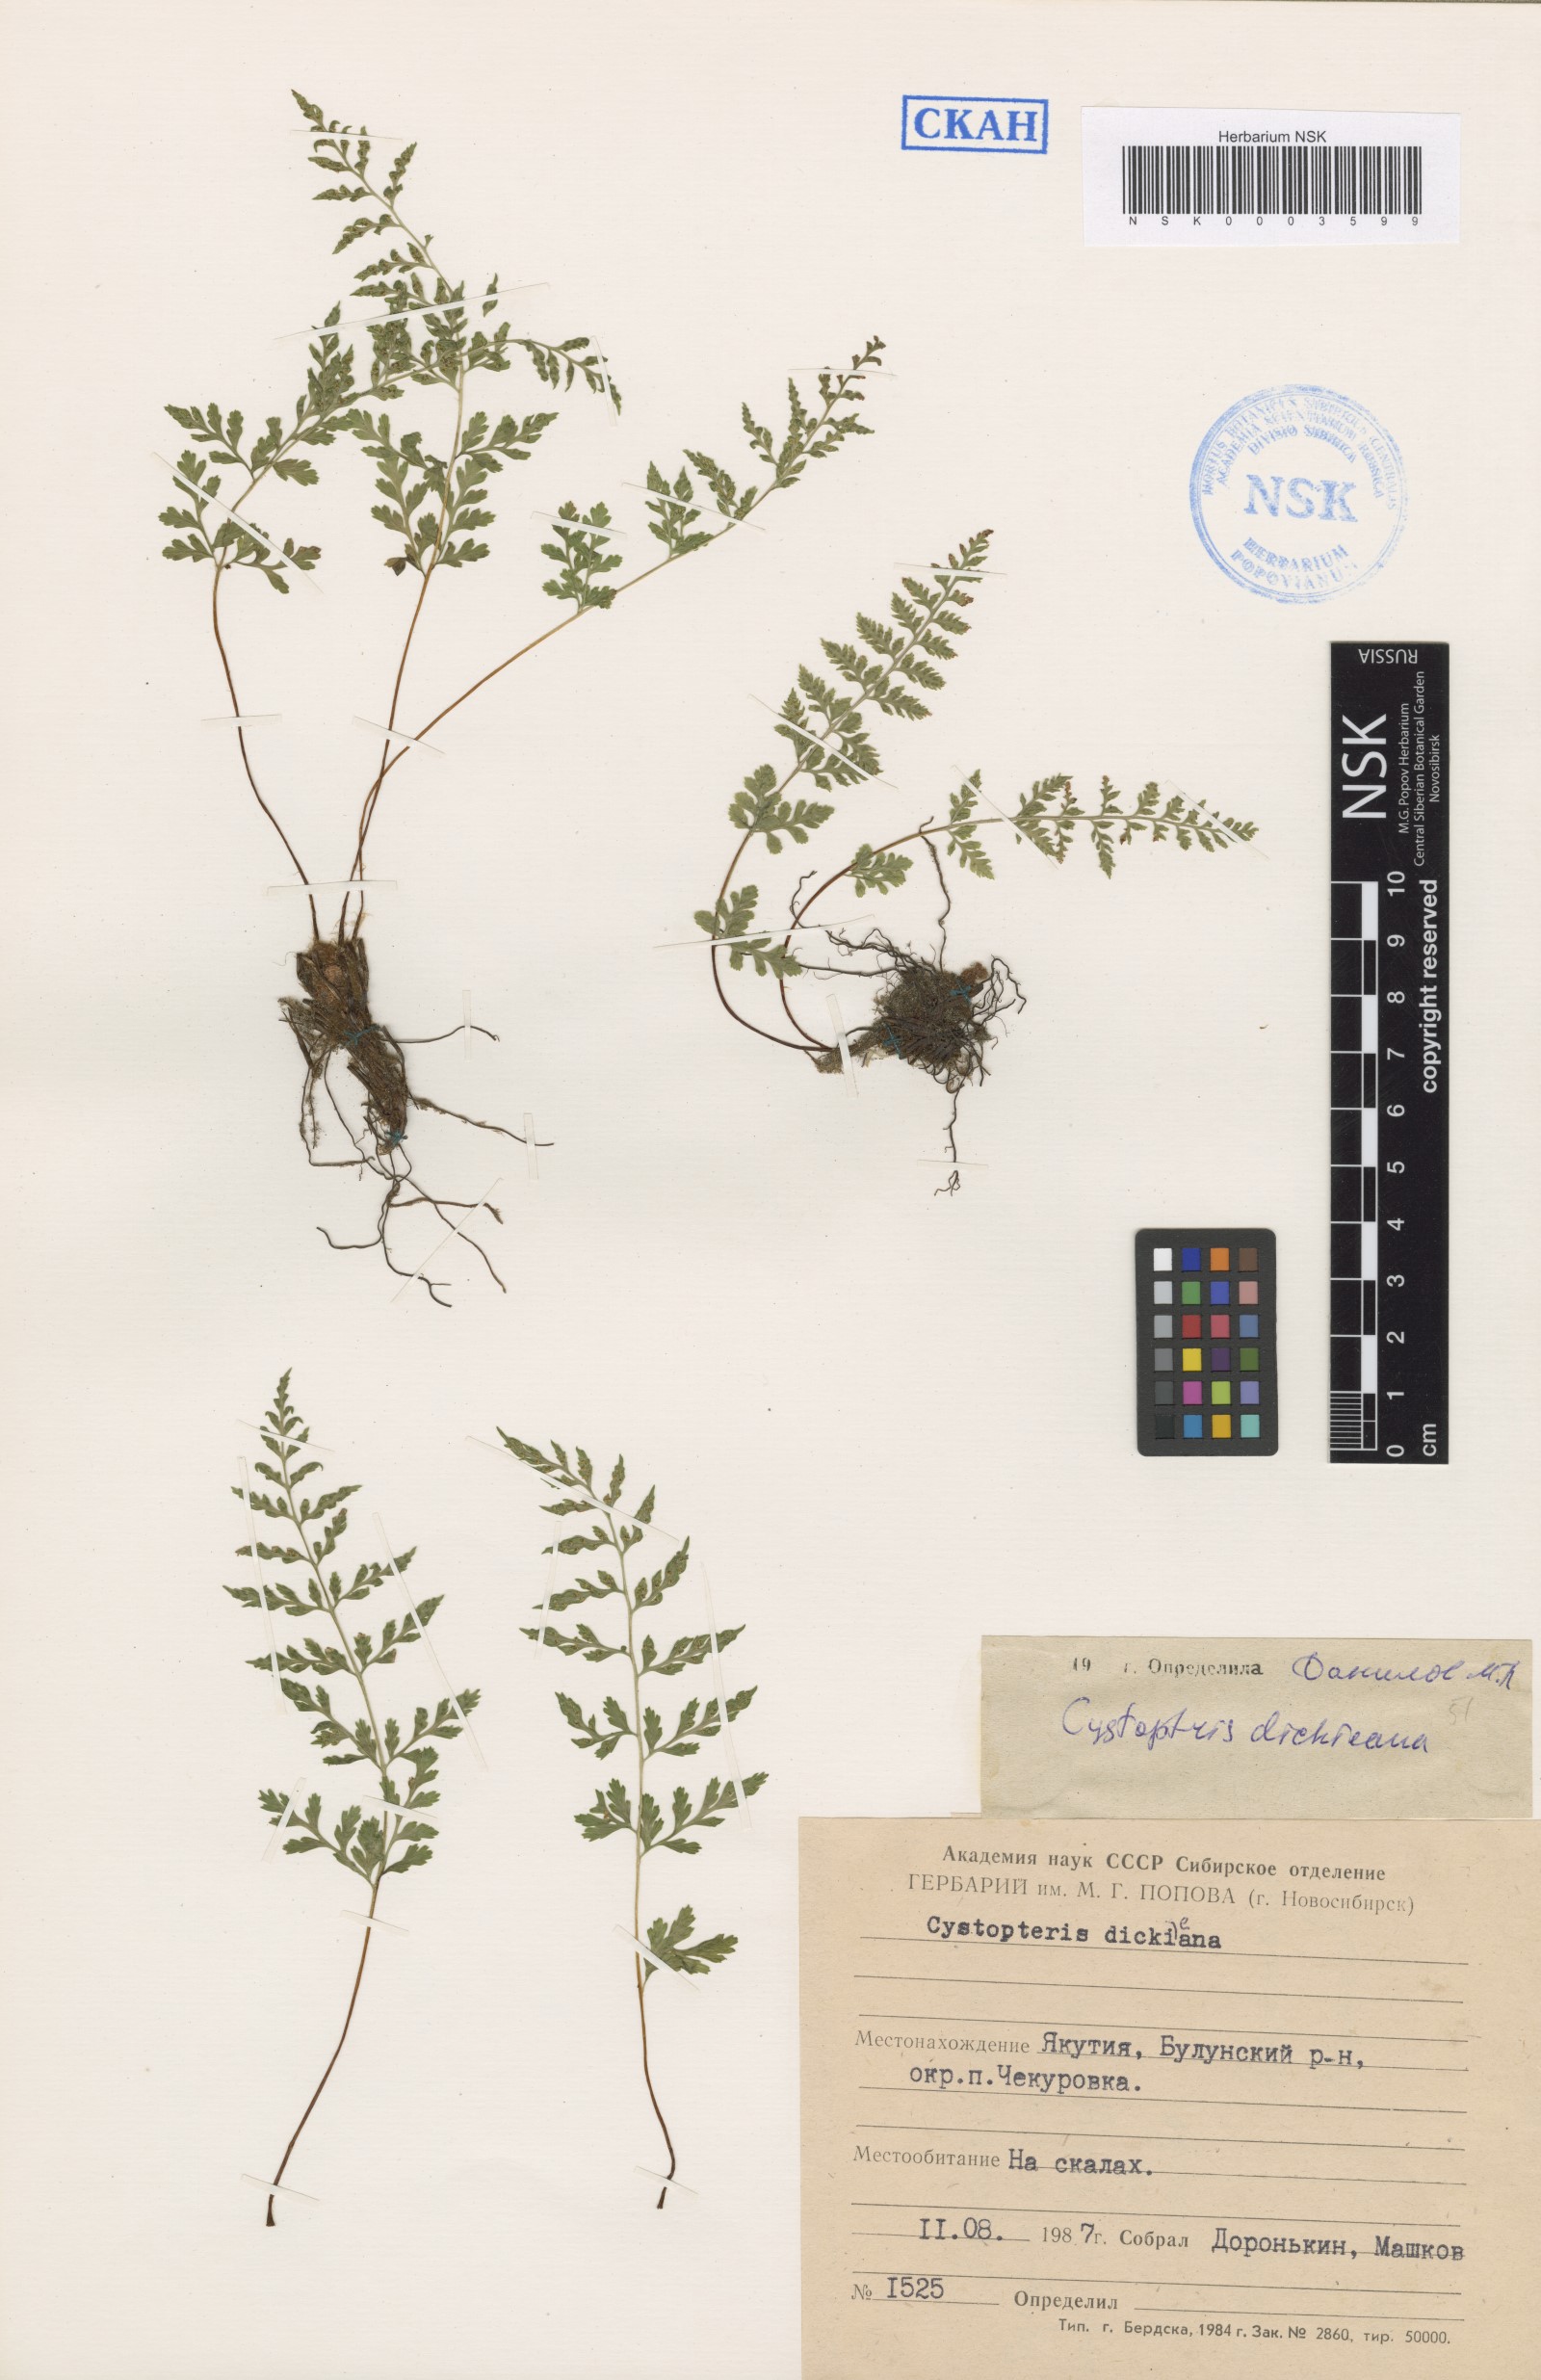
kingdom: Plantae
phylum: Tracheophyta
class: Polypodiopsida
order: Polypodiales
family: Cystopteridaceae
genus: Cystopteris
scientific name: Cystopteris dickieana
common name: Dickie's bladder-fern
